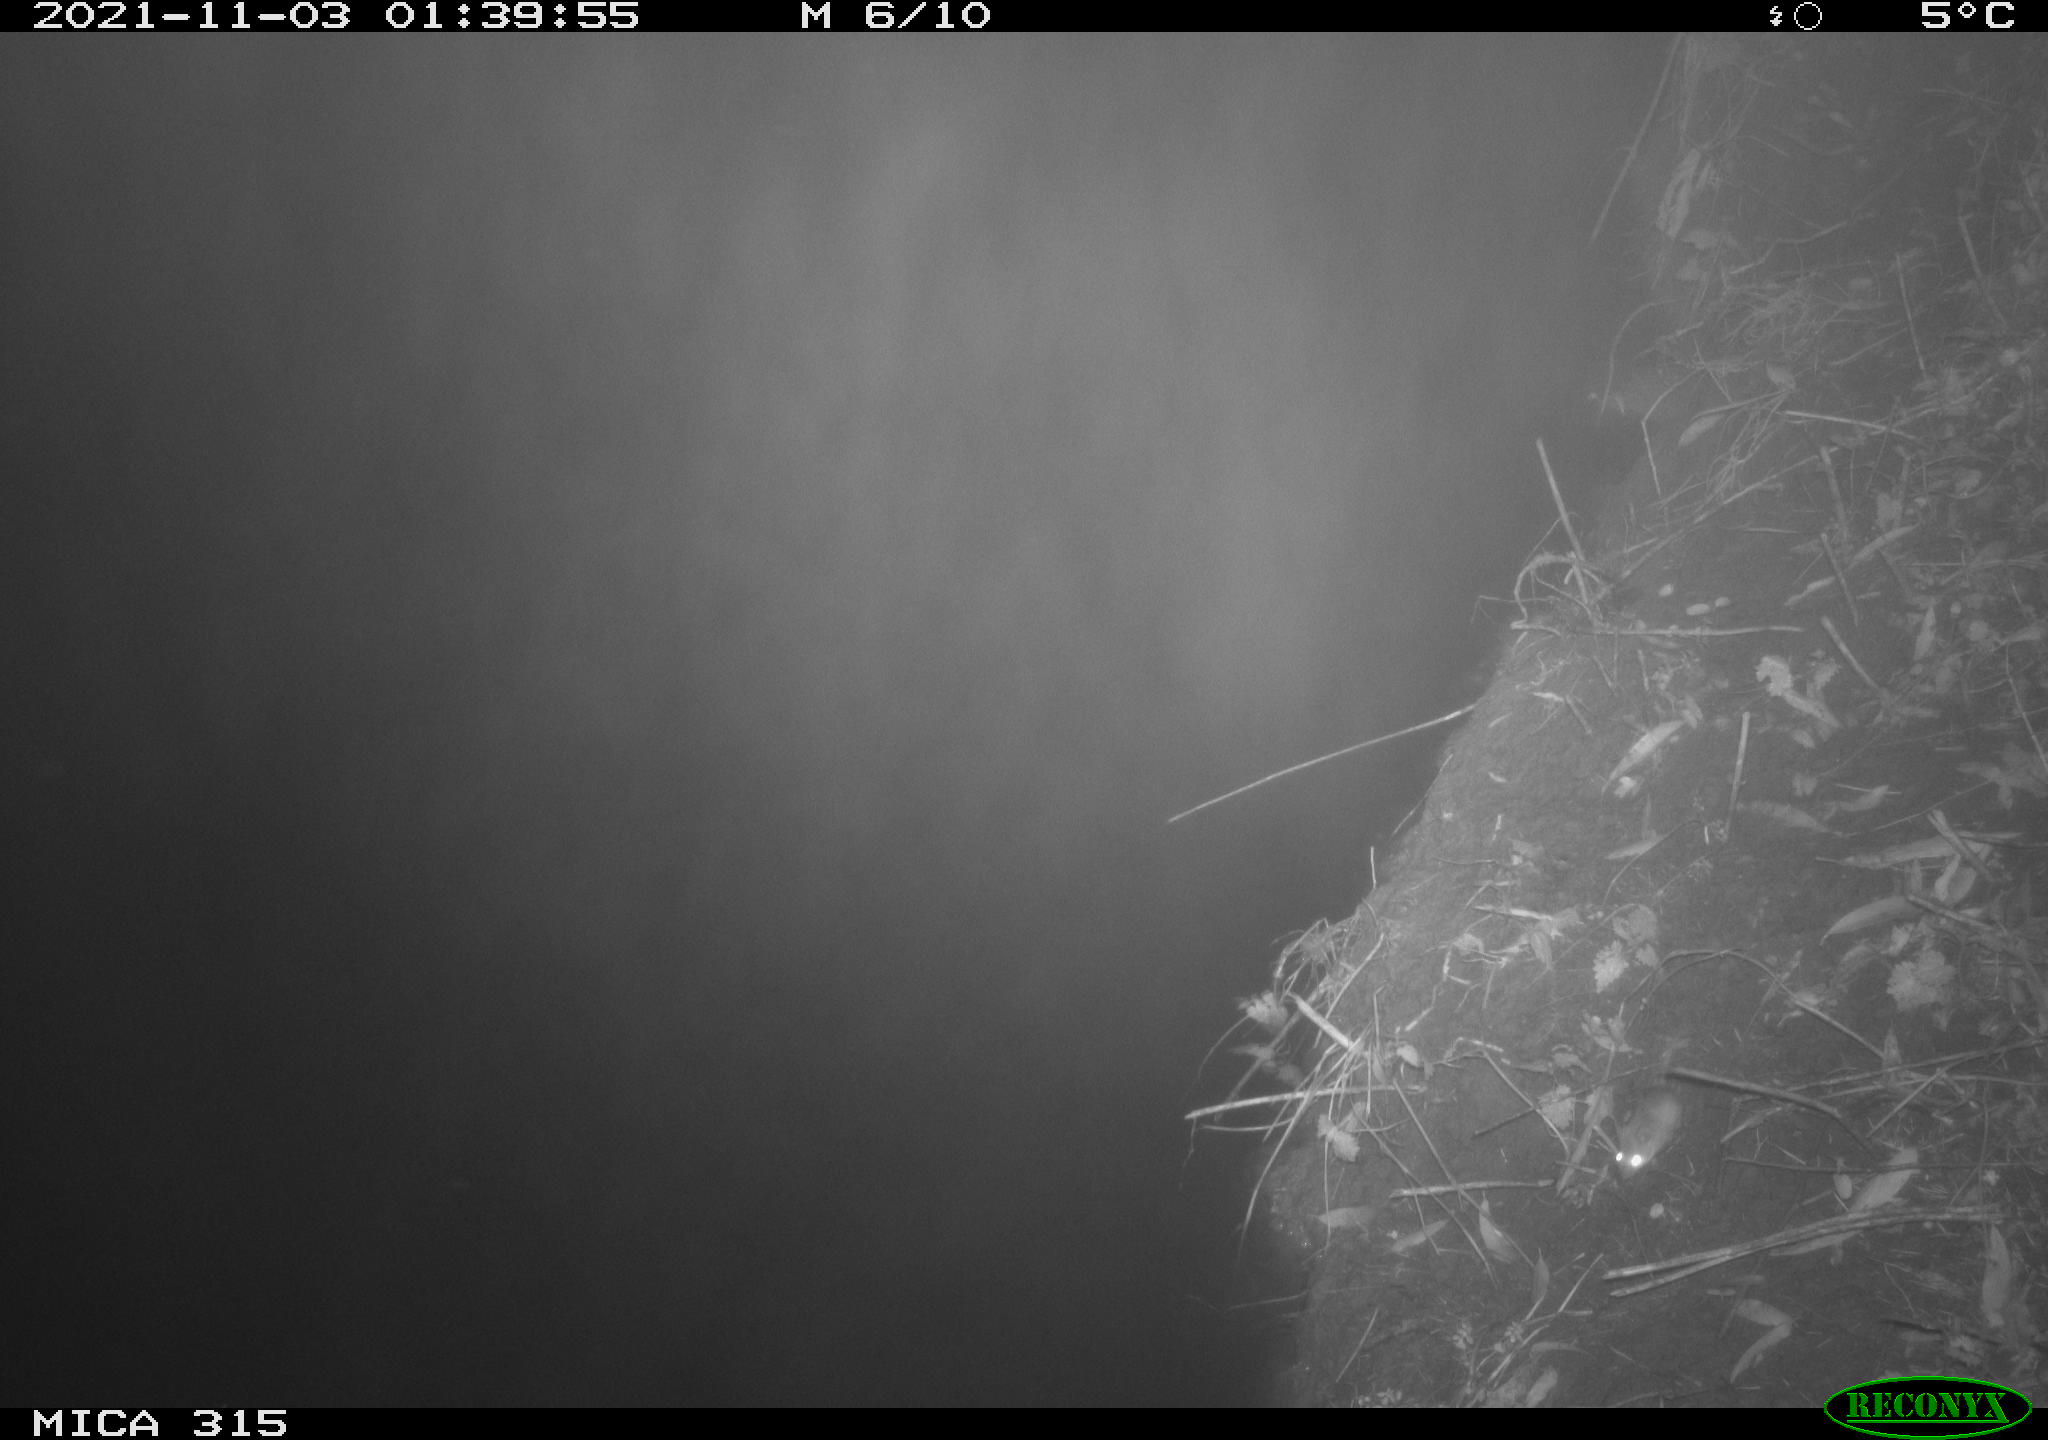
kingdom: Animalia
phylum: Chordata
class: Mammalia
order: Rodentia
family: Muridae
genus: Apodemus
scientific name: Apodemus sylvaticus
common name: Wood mouse
